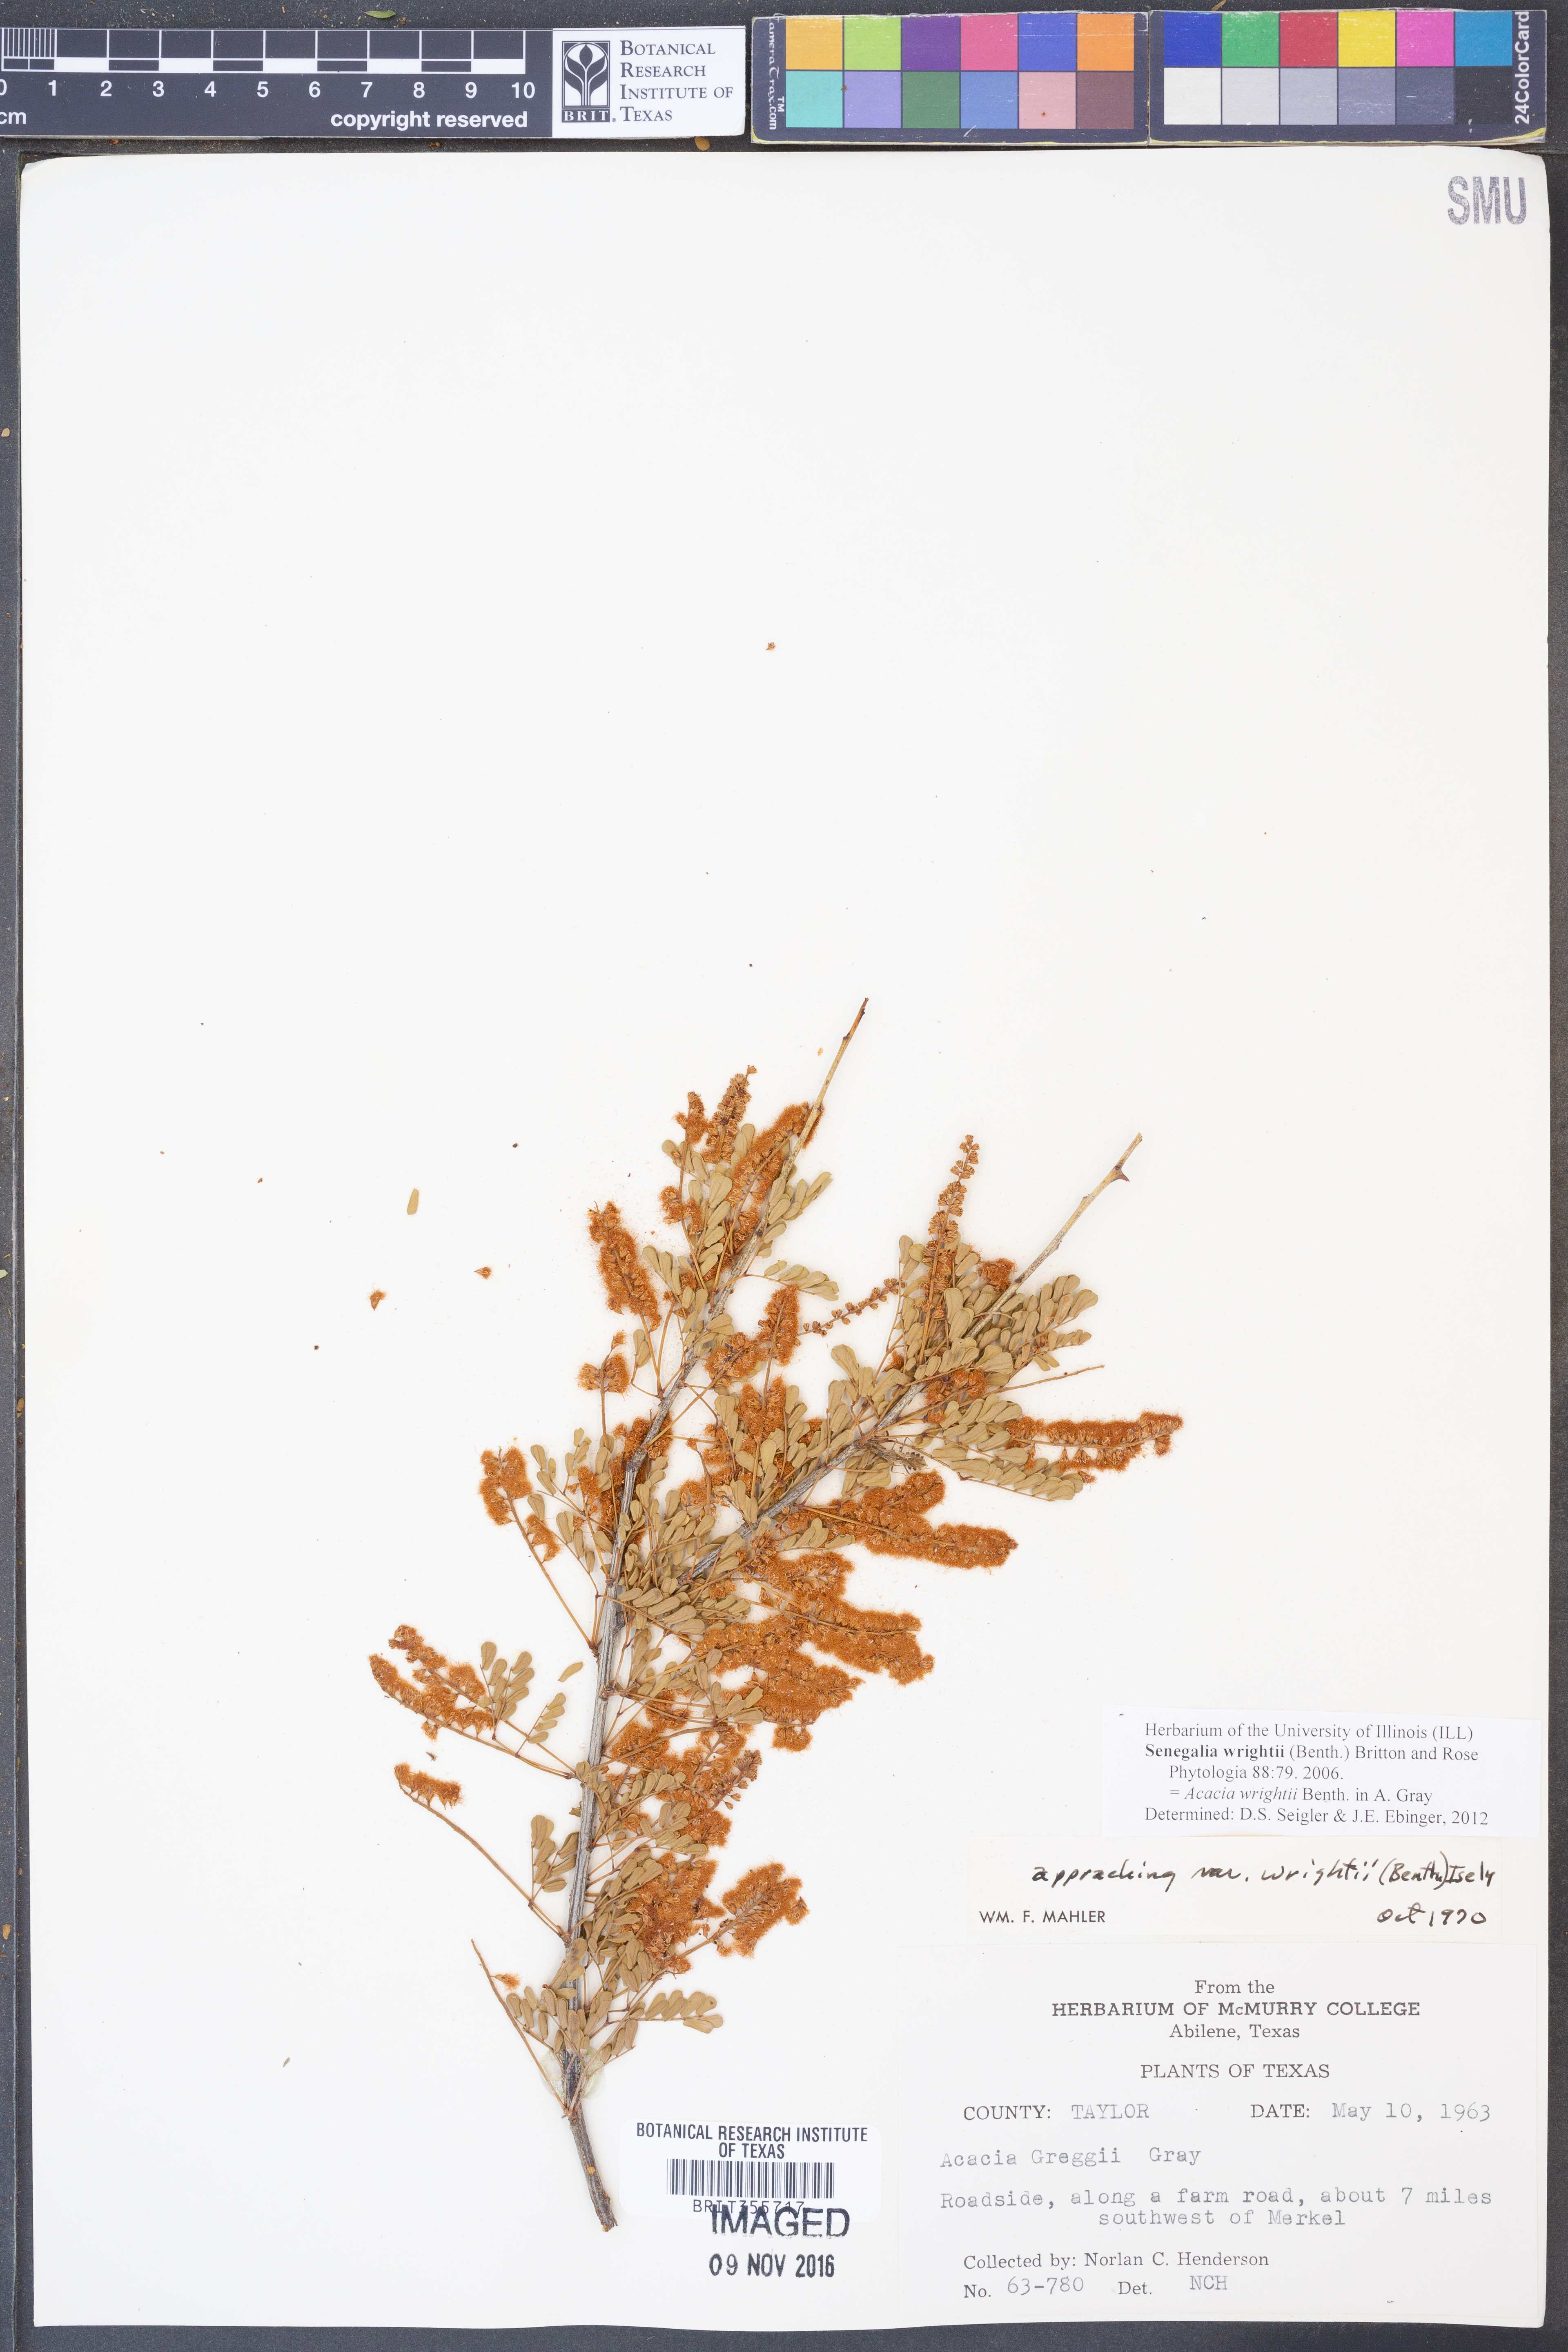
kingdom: Plantae
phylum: Tracheophyta
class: Magnoliopsida
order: Fabales
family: Fabaceae
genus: Senegalia
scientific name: Senegalia wrightii
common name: Texas cat's-claw
